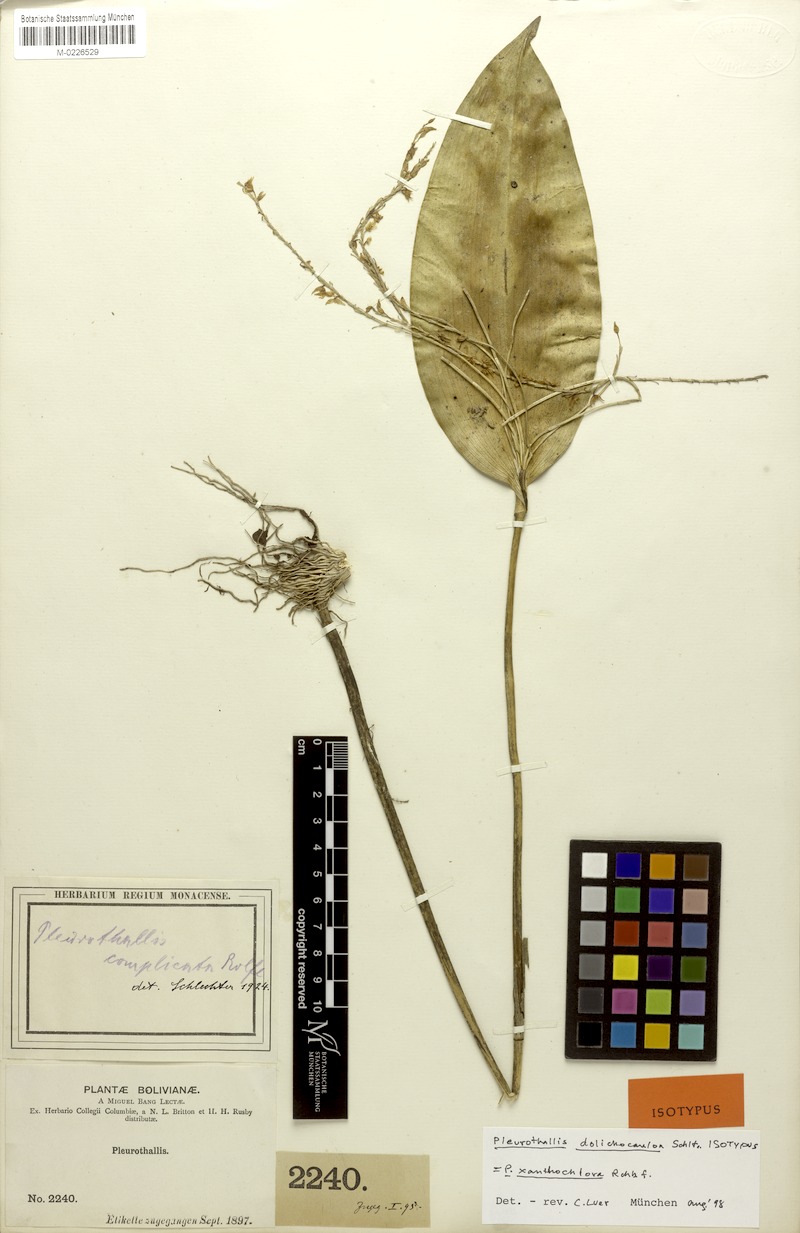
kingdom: Plantae
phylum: Tracheophyta
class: Liliopsida
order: Asparagales
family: Orchidaceae
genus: Pleurothallis
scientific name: Pleurothallis xanthochlora
